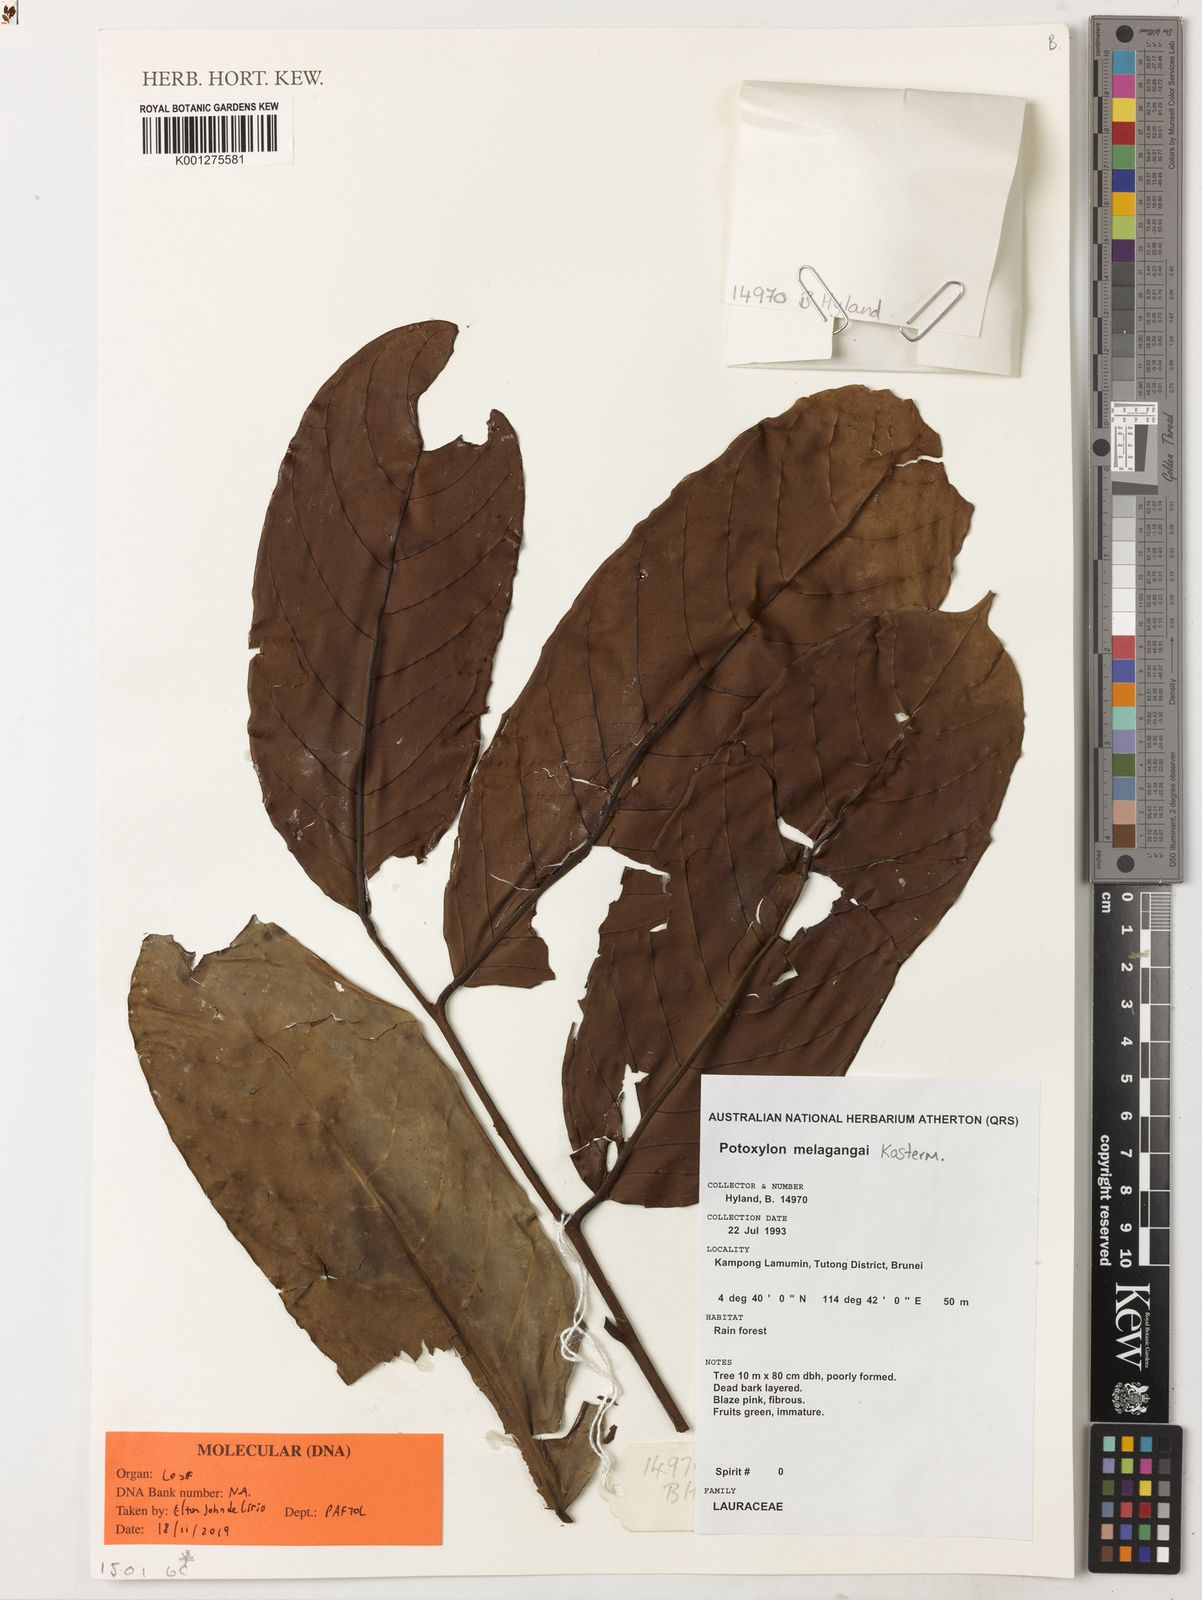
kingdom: Plantae
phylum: Tracheophyta
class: Magnoliopsida
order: Laurales
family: Lauraceae
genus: Potoxylon
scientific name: Potoxylon melagangai
